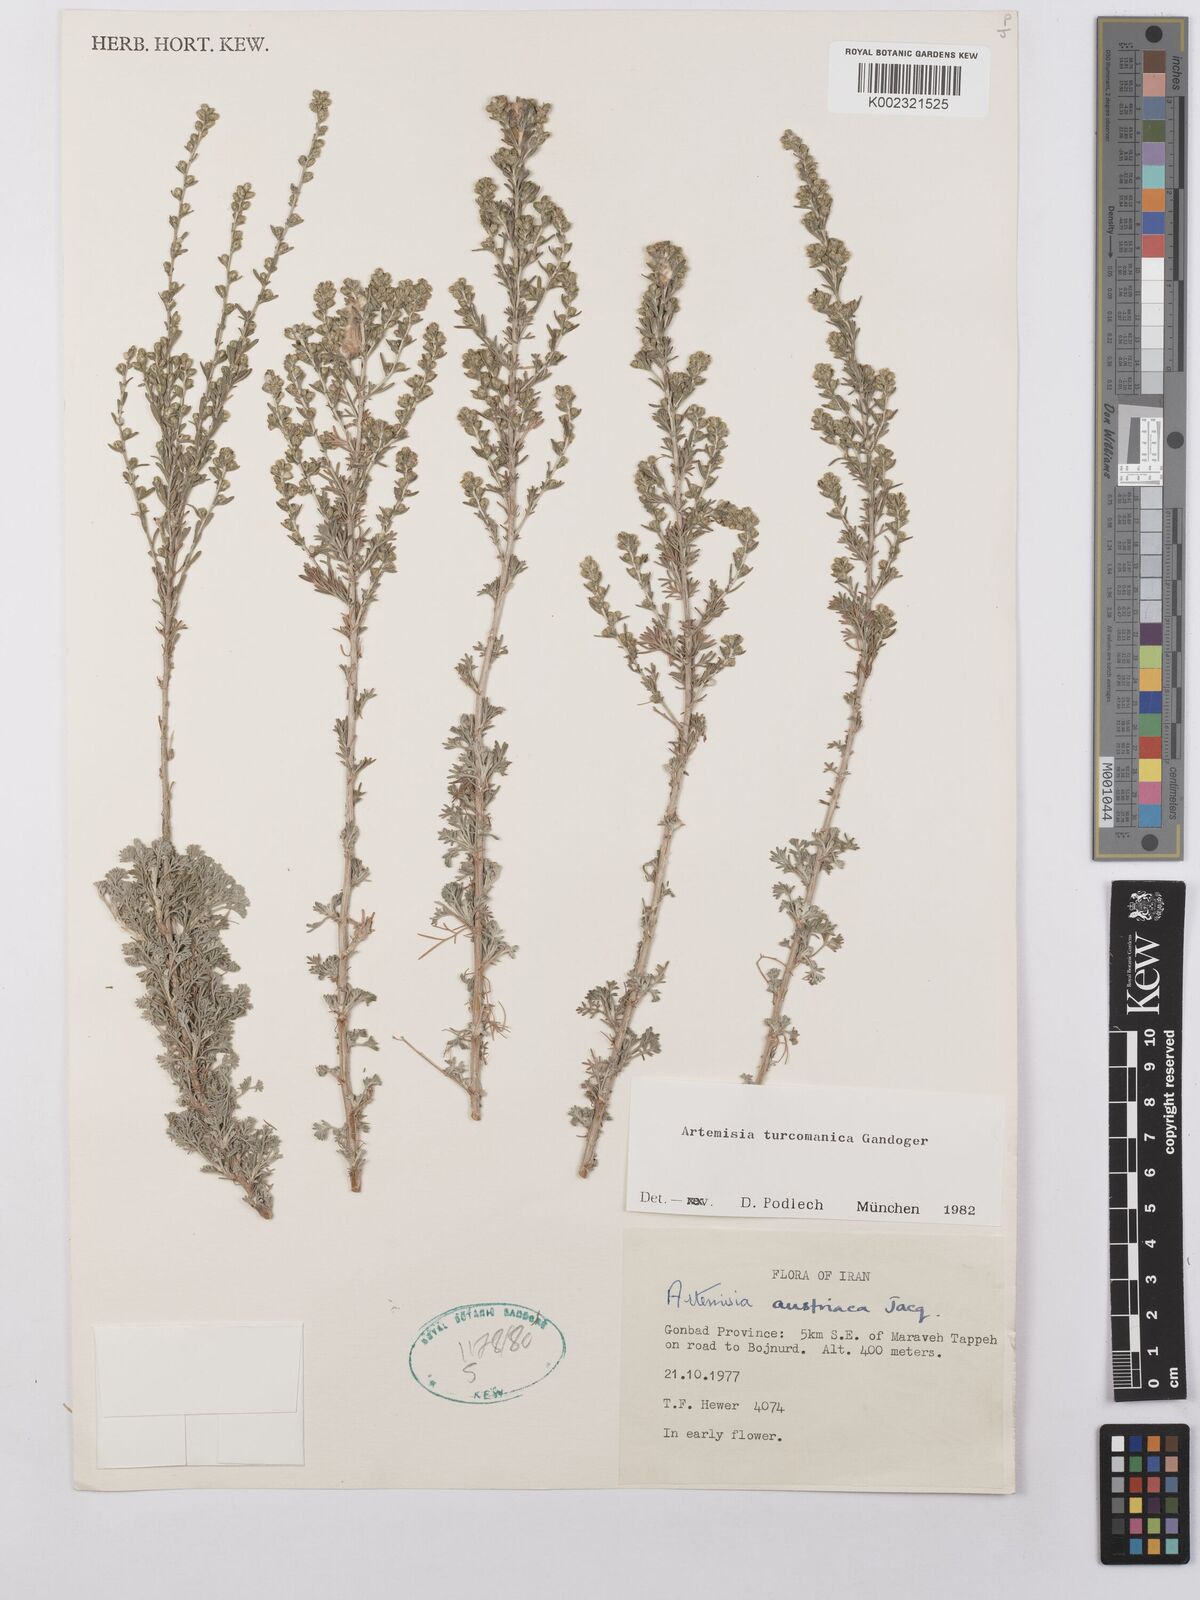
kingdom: Plantae
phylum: Tracheophyta
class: Magnoliopsida
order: Asterales
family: Asteraceae
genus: Artemisia
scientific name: Artemisia turanica
